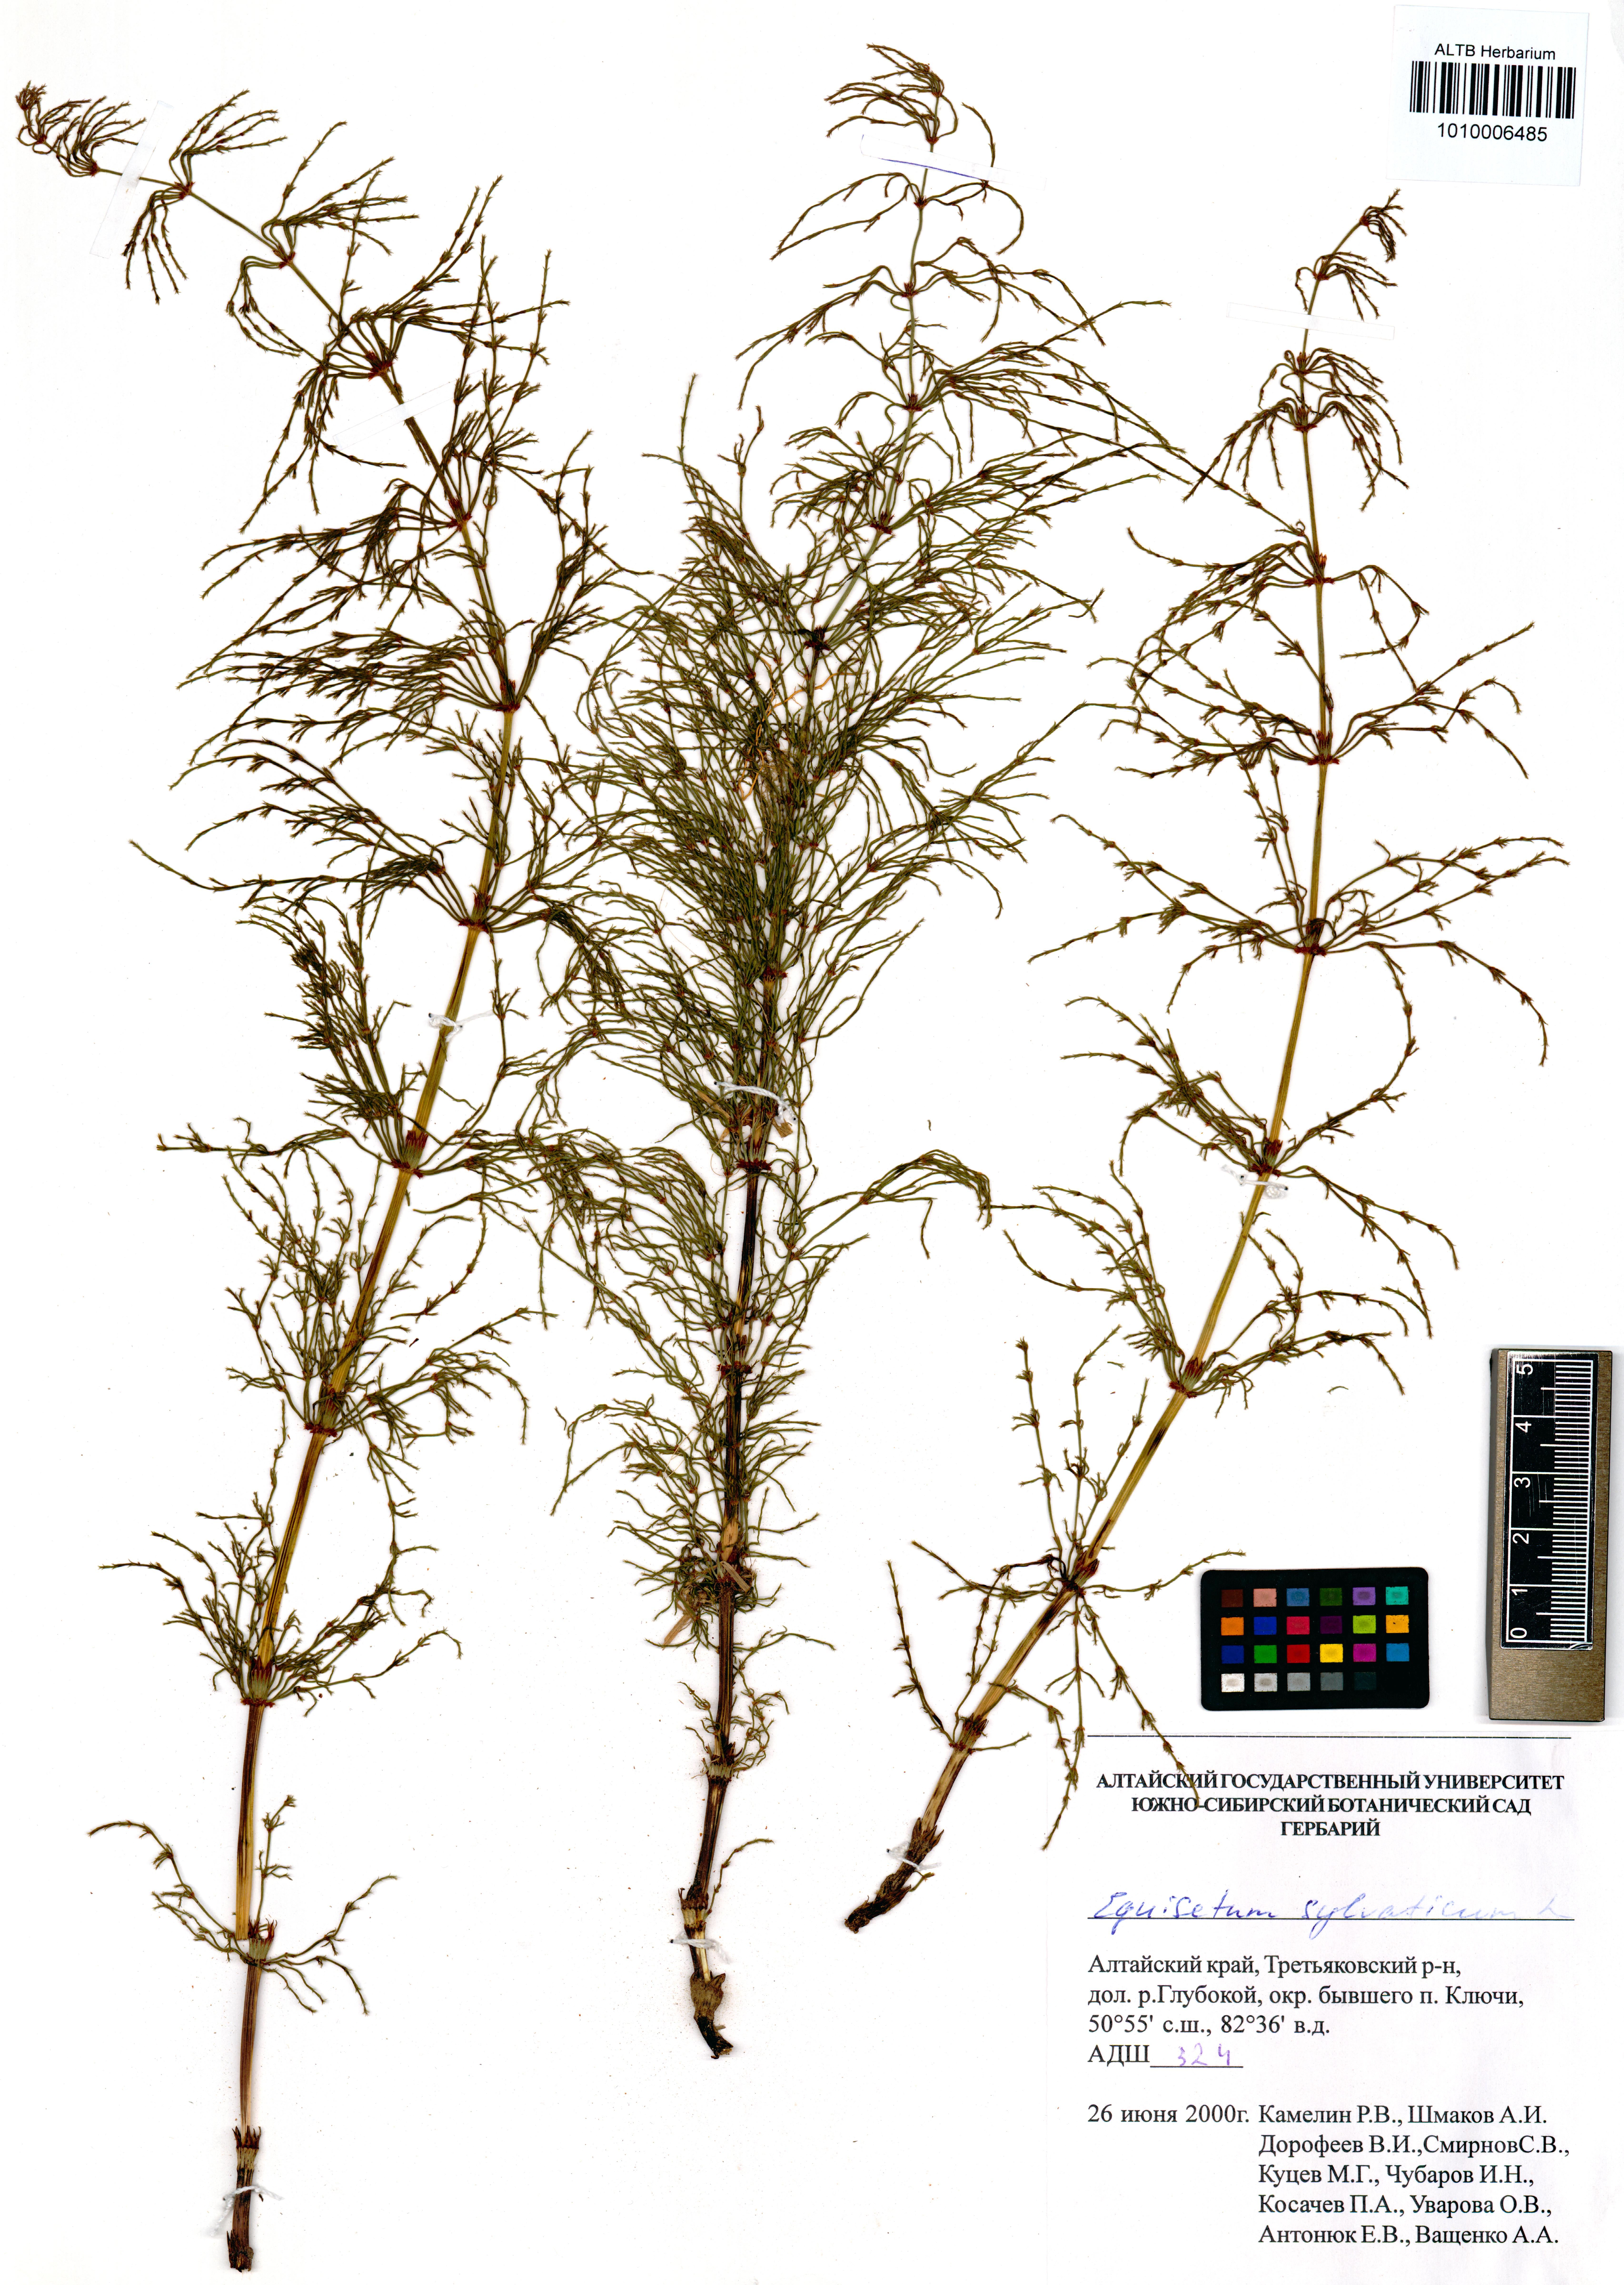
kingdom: Plantae
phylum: Tracheophyta
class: Polypodiopsida
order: Equisetales
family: Equisetaceae
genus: Equisetum
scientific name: Equisetum sylvaticum
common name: Wood horsetail
